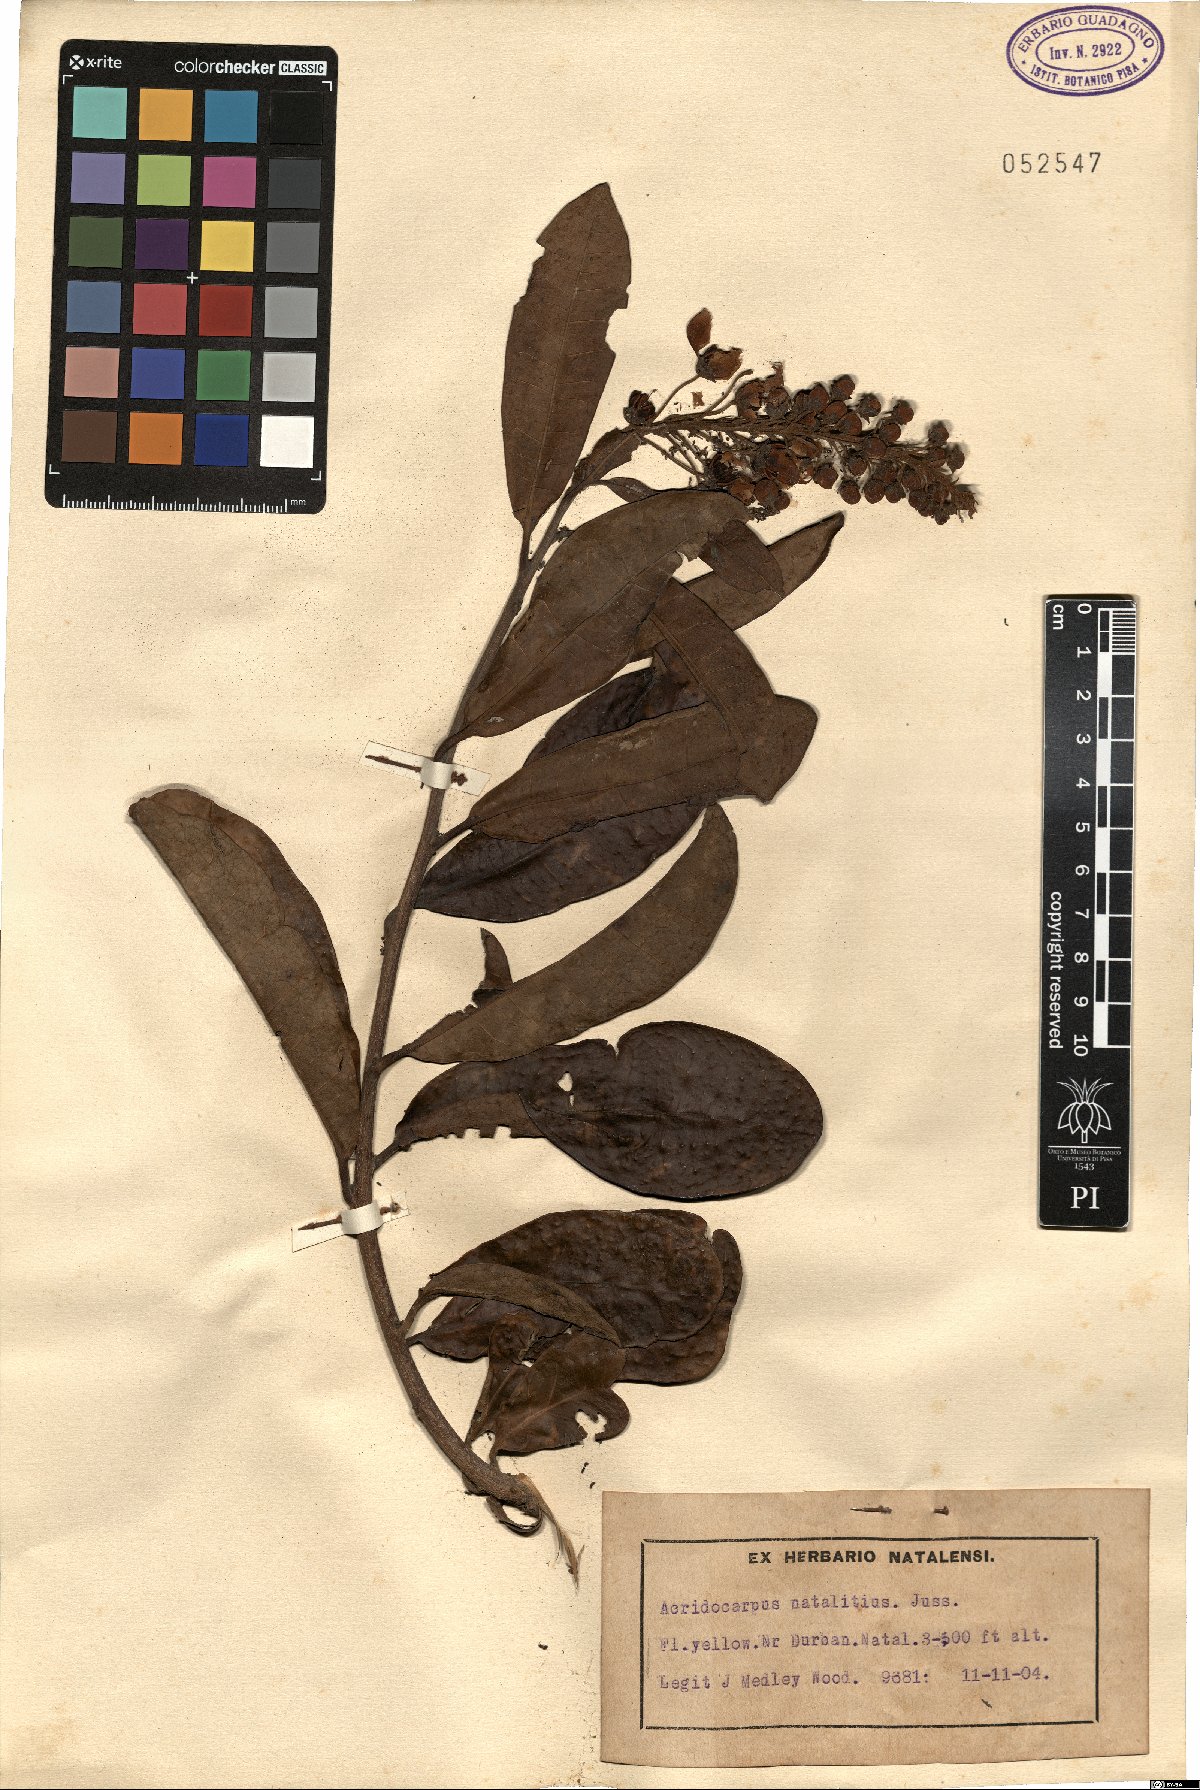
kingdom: Plantae
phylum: Tracheophyta
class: Magnoliopsida
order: Malpighiales
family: Malpighiaceae
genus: Acridocarpus
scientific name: Acridocarpus natalitius
